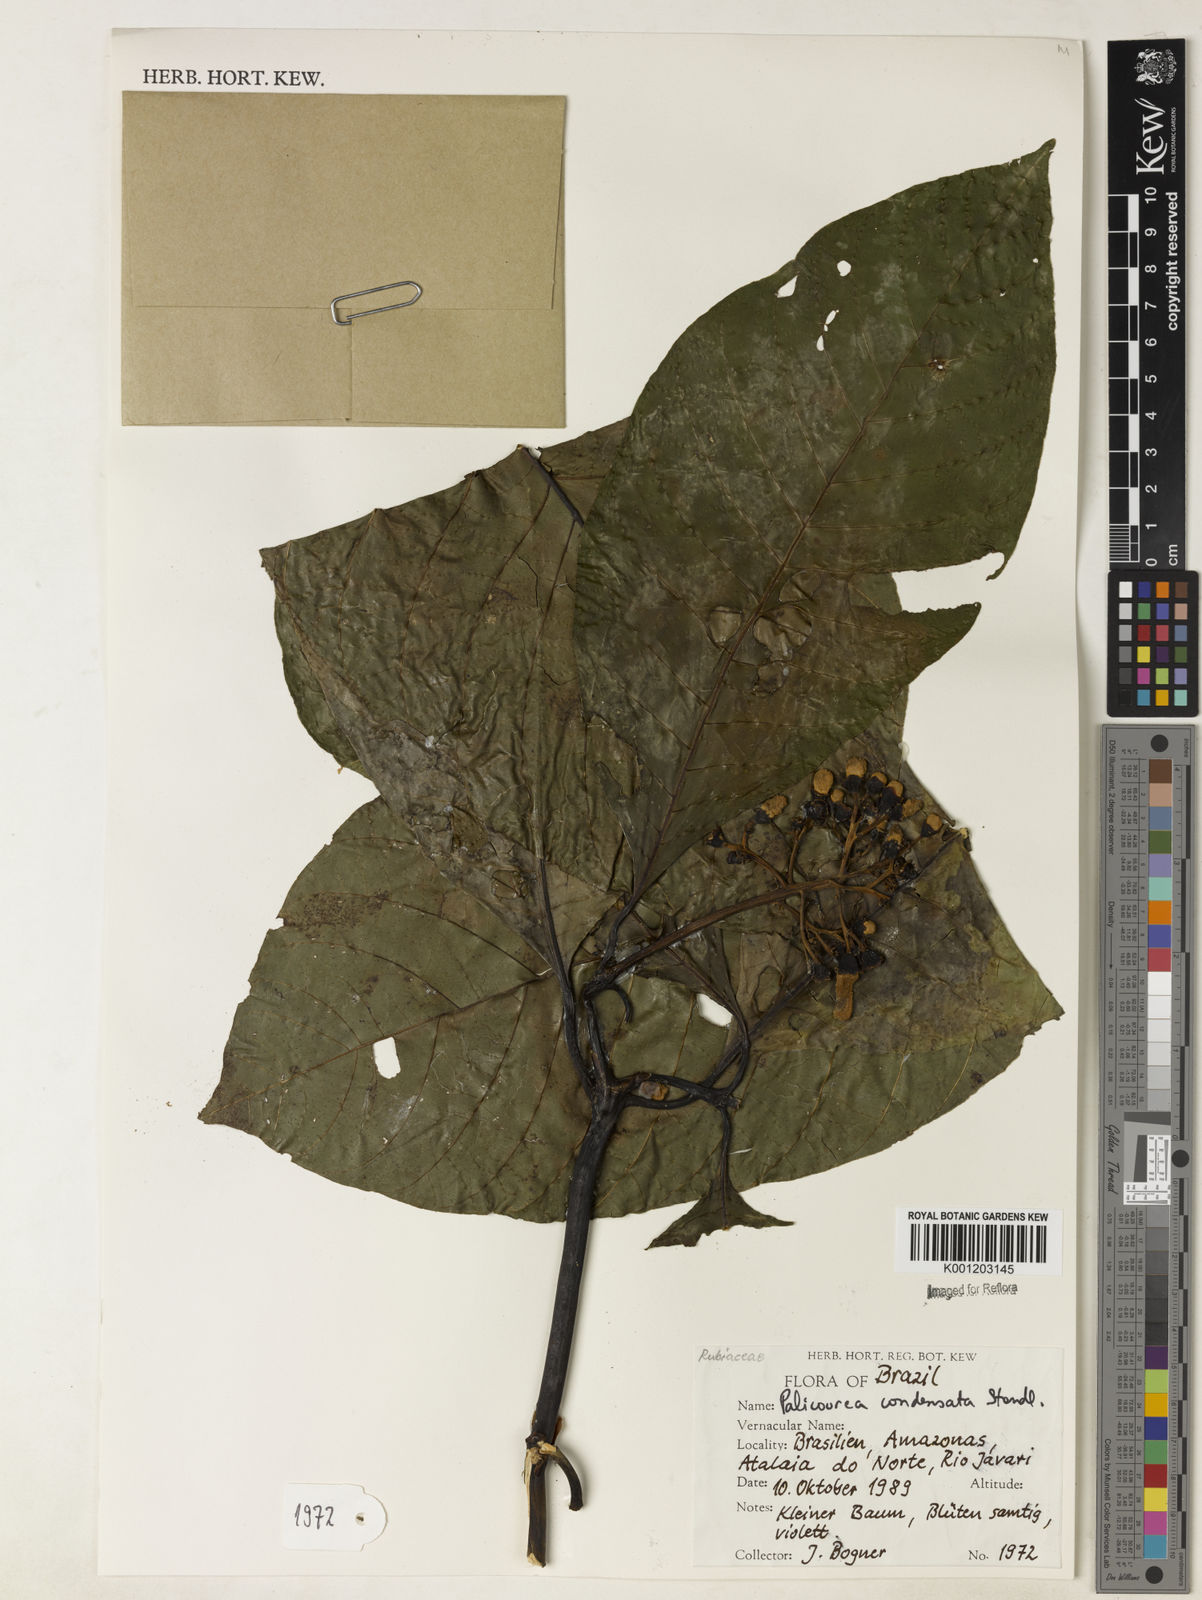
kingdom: Plantae
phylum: Tracheophyta
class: Magnoliopsida
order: Gentianales
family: Rubiaceae
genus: Palicourea
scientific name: Palicourea lasiantha
